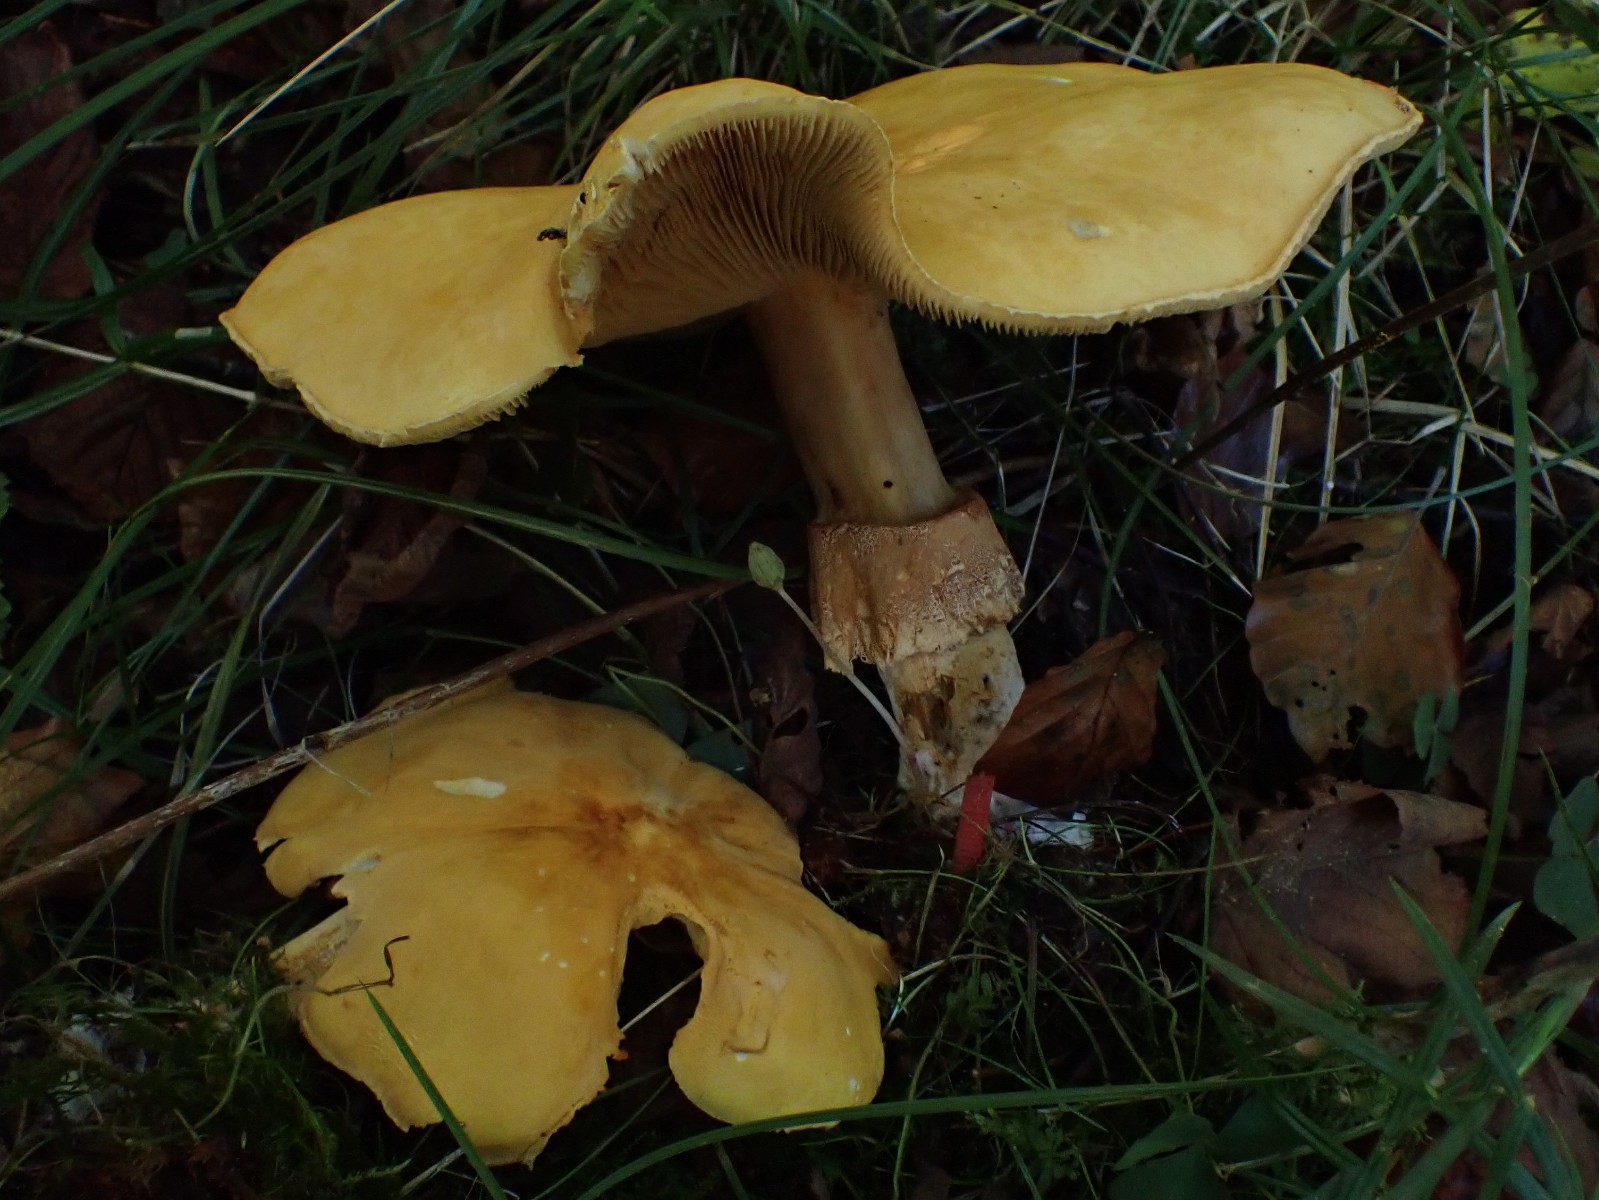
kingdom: Fungi
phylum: Basidiomycota
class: Agaricomycetes
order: Agaricales
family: Tricholomataceae
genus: Phaeolepiota
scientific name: Phaeolepiota aurea
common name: gyldenhat
